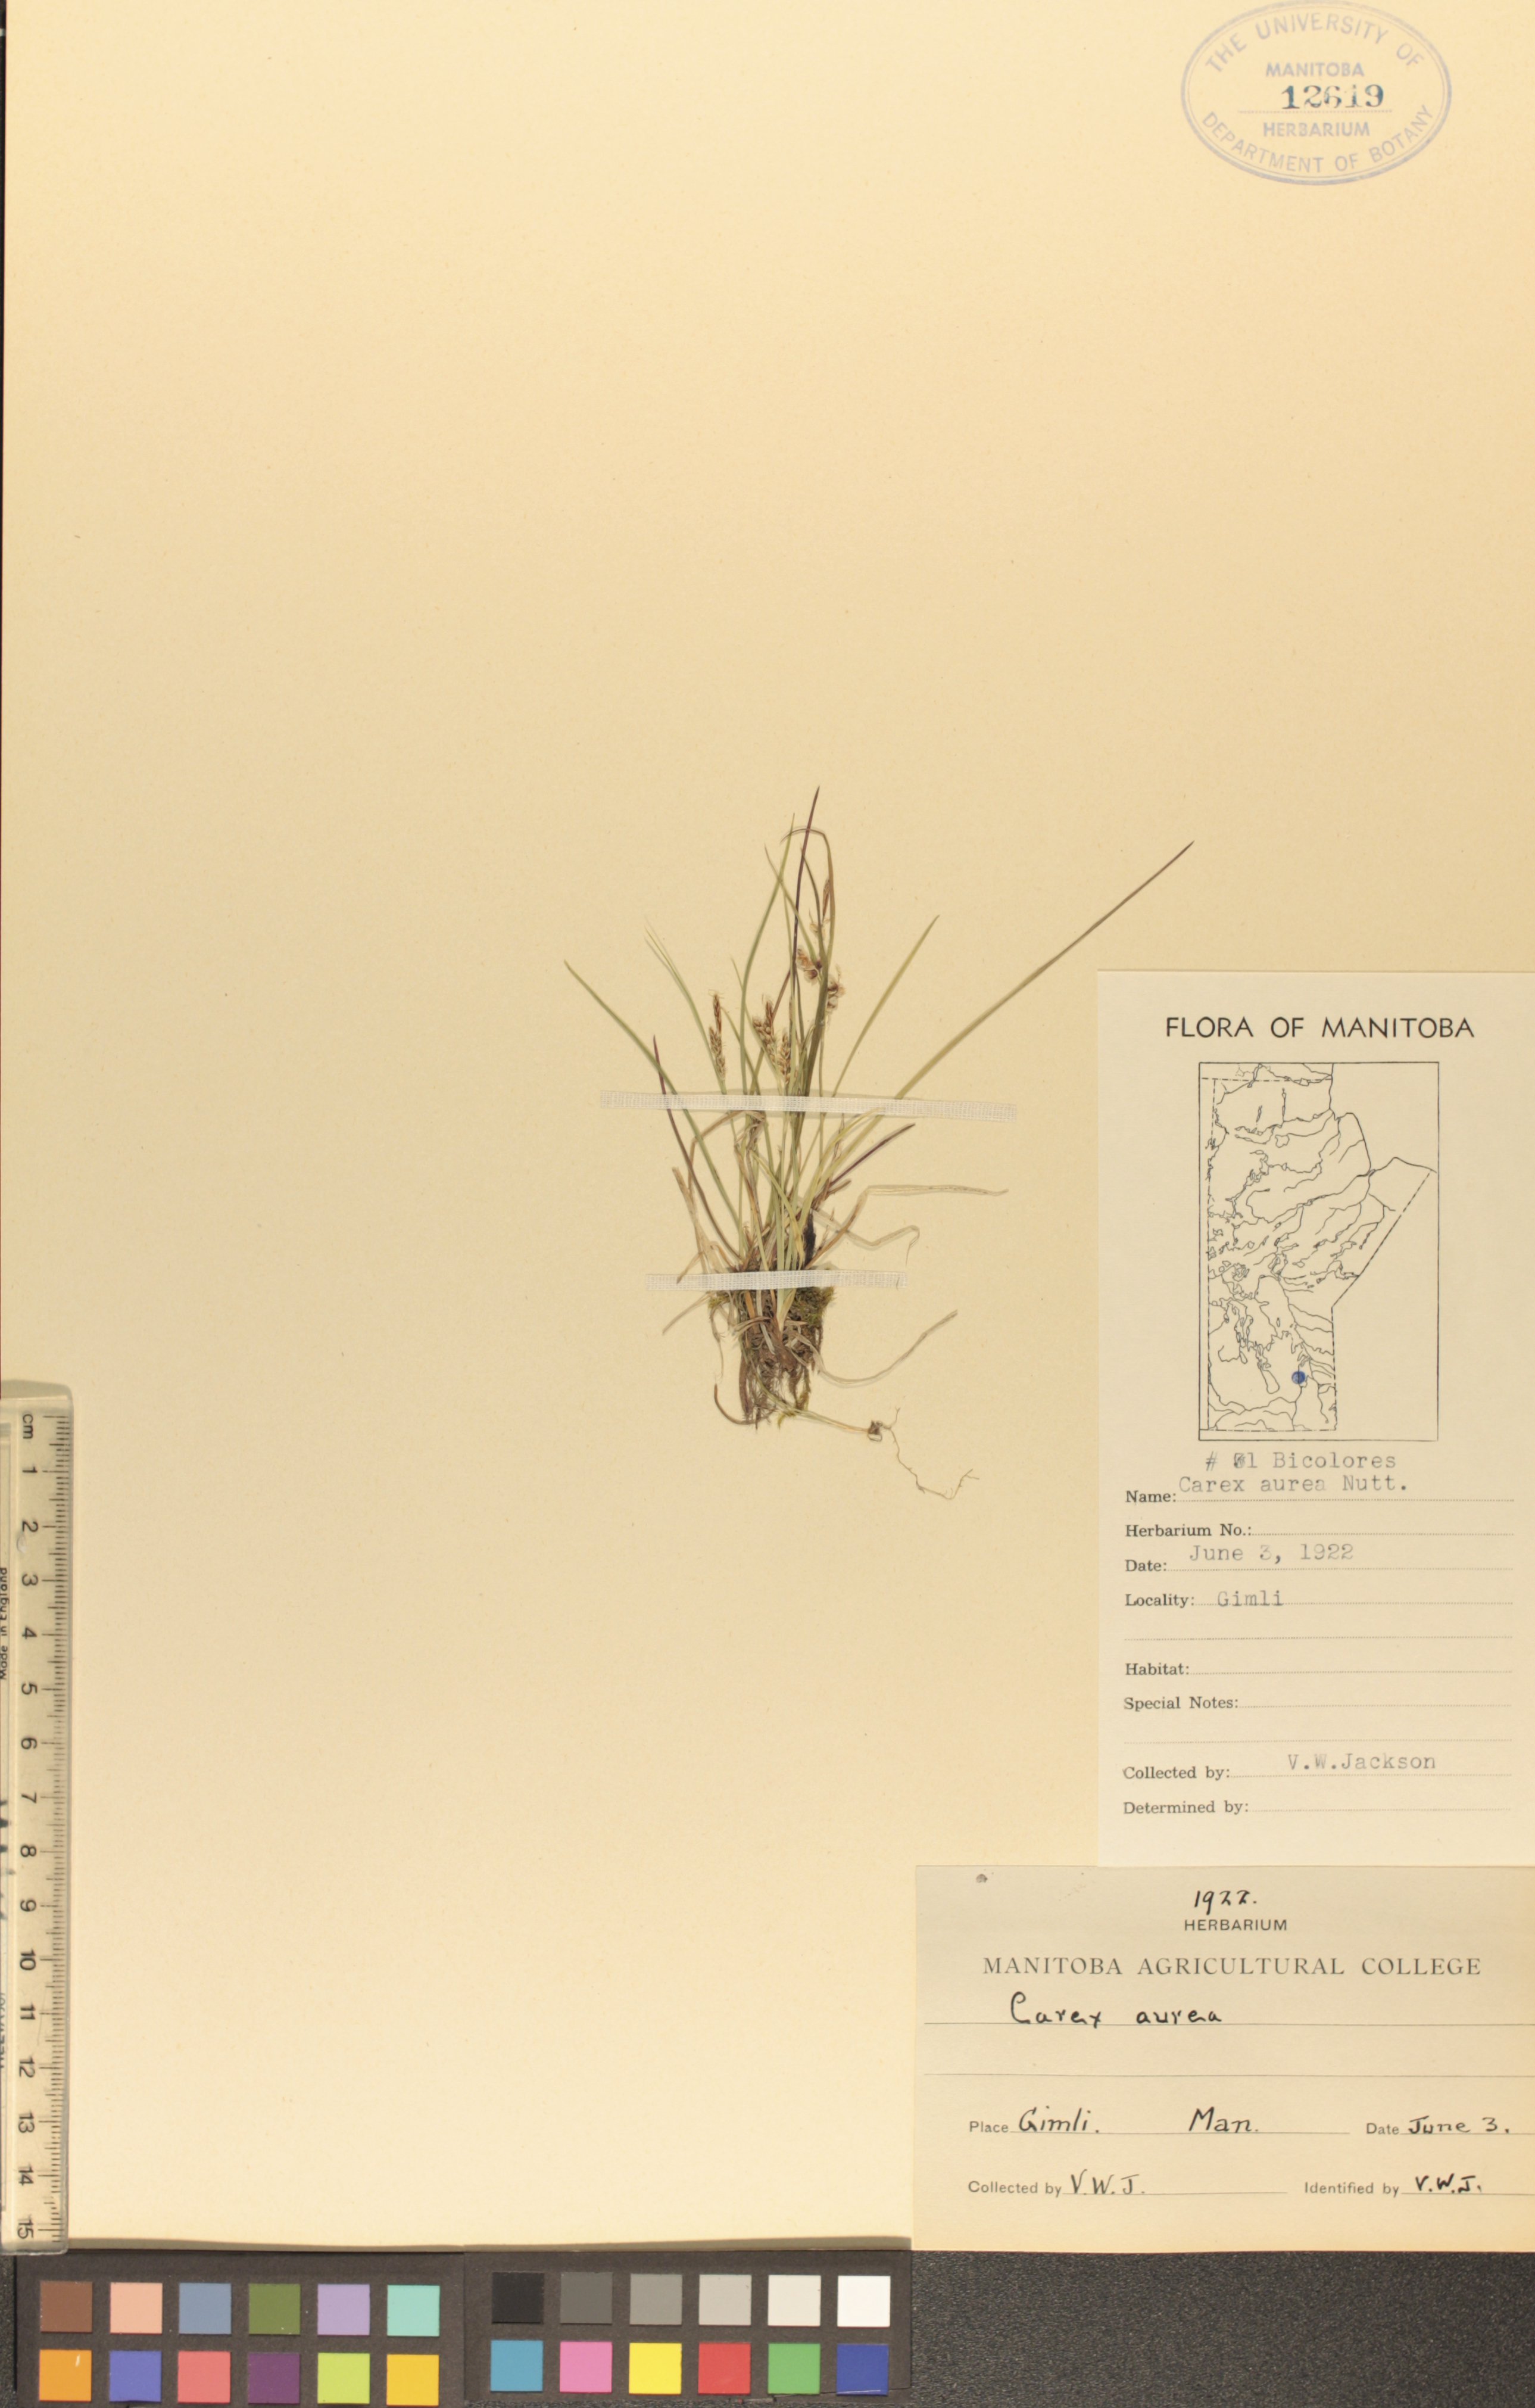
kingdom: Plantae
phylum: Tracheophyta
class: Liliopsida
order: Poales
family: Cyperaceae
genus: Carex
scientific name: Carex aurea
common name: Golden sedge
